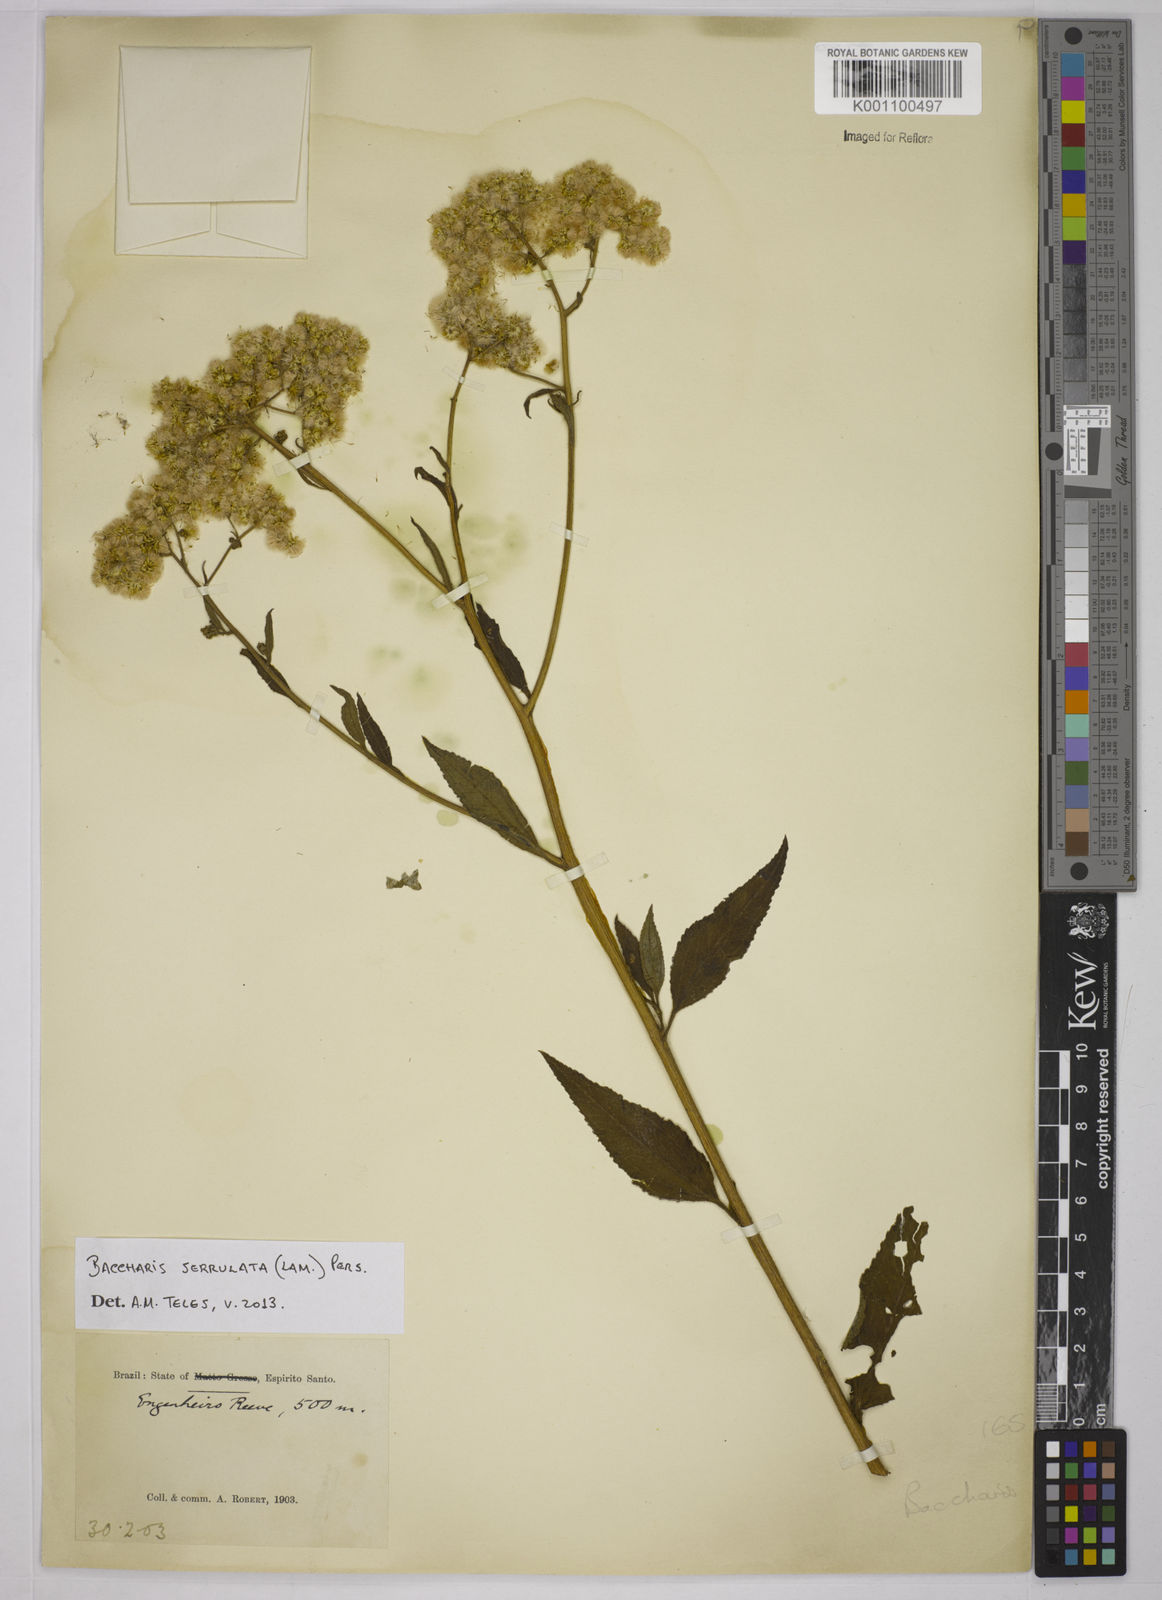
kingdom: Plantae
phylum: Tracheophyta
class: Magnoliopsida
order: Asterales
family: Asteraceae
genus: Baccharis
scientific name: Baccharis serrulata
